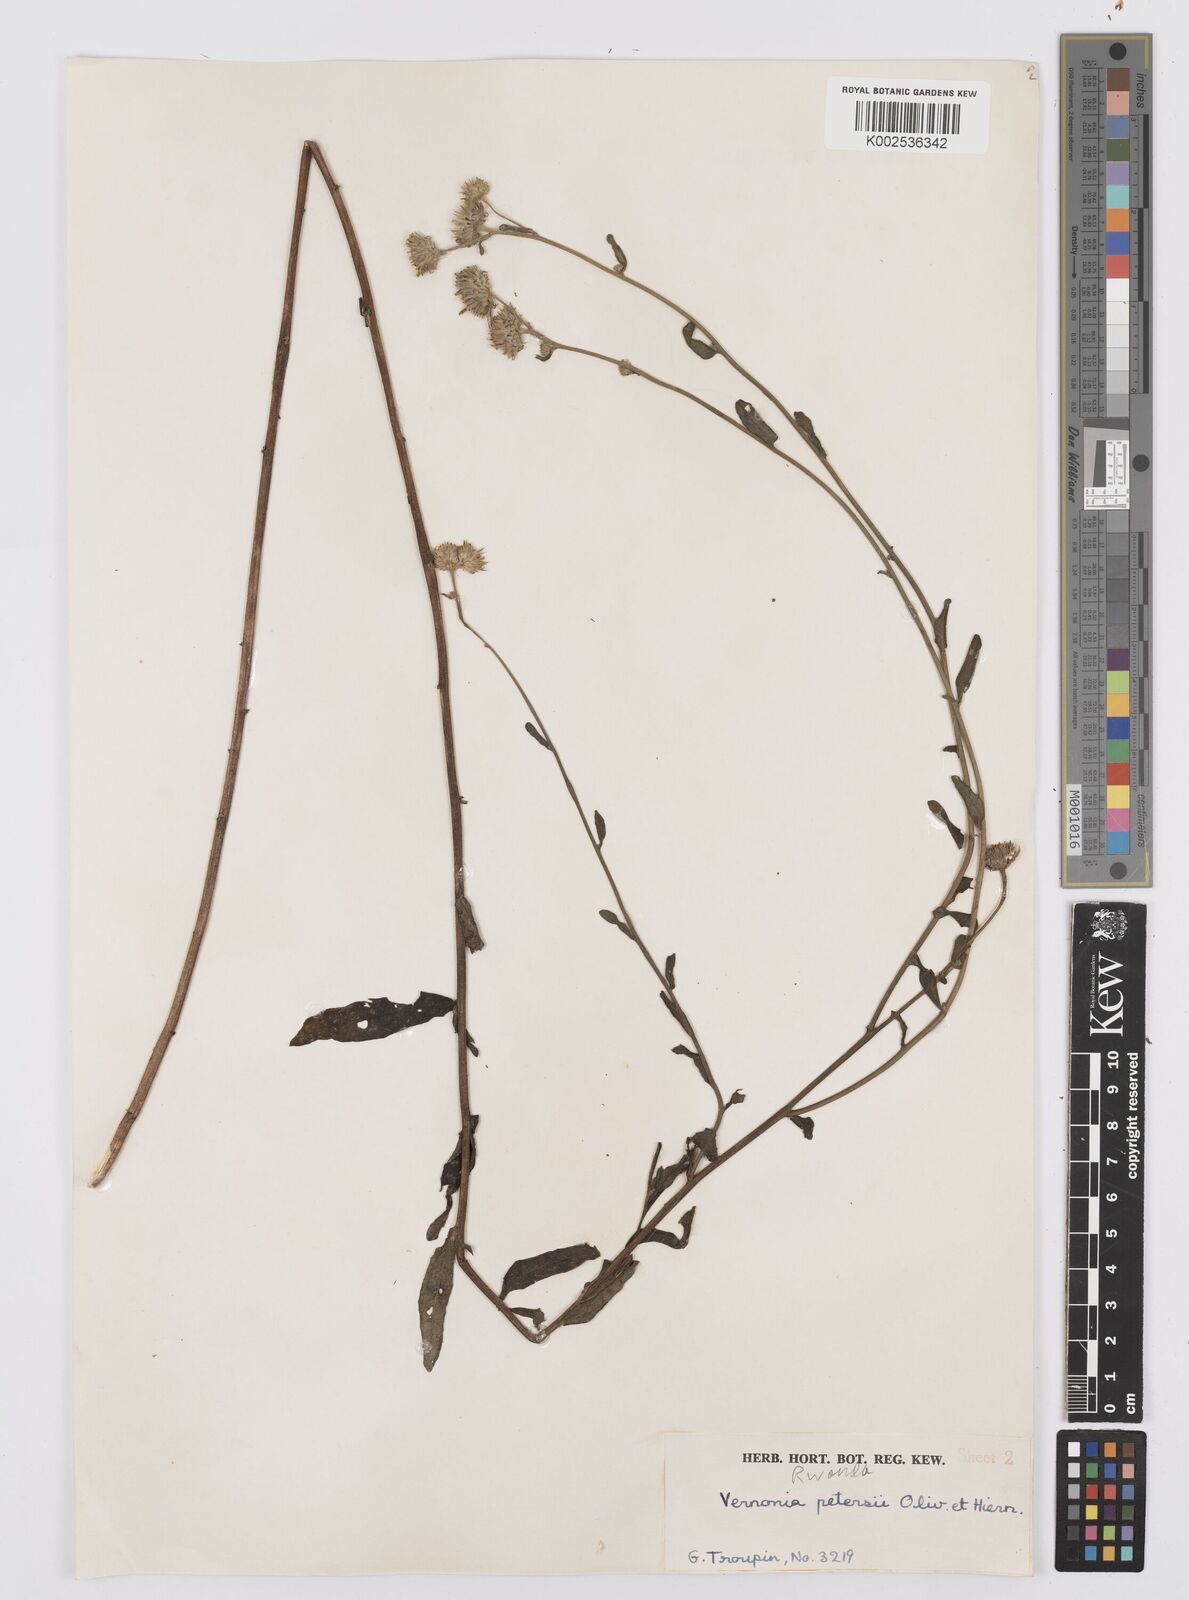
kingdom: Plantae
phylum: Tracheophyta
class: Magnoliopsida
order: Asterales
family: Asteraceae
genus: Vernoniastrum
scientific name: Vernoniastrum latifolium
